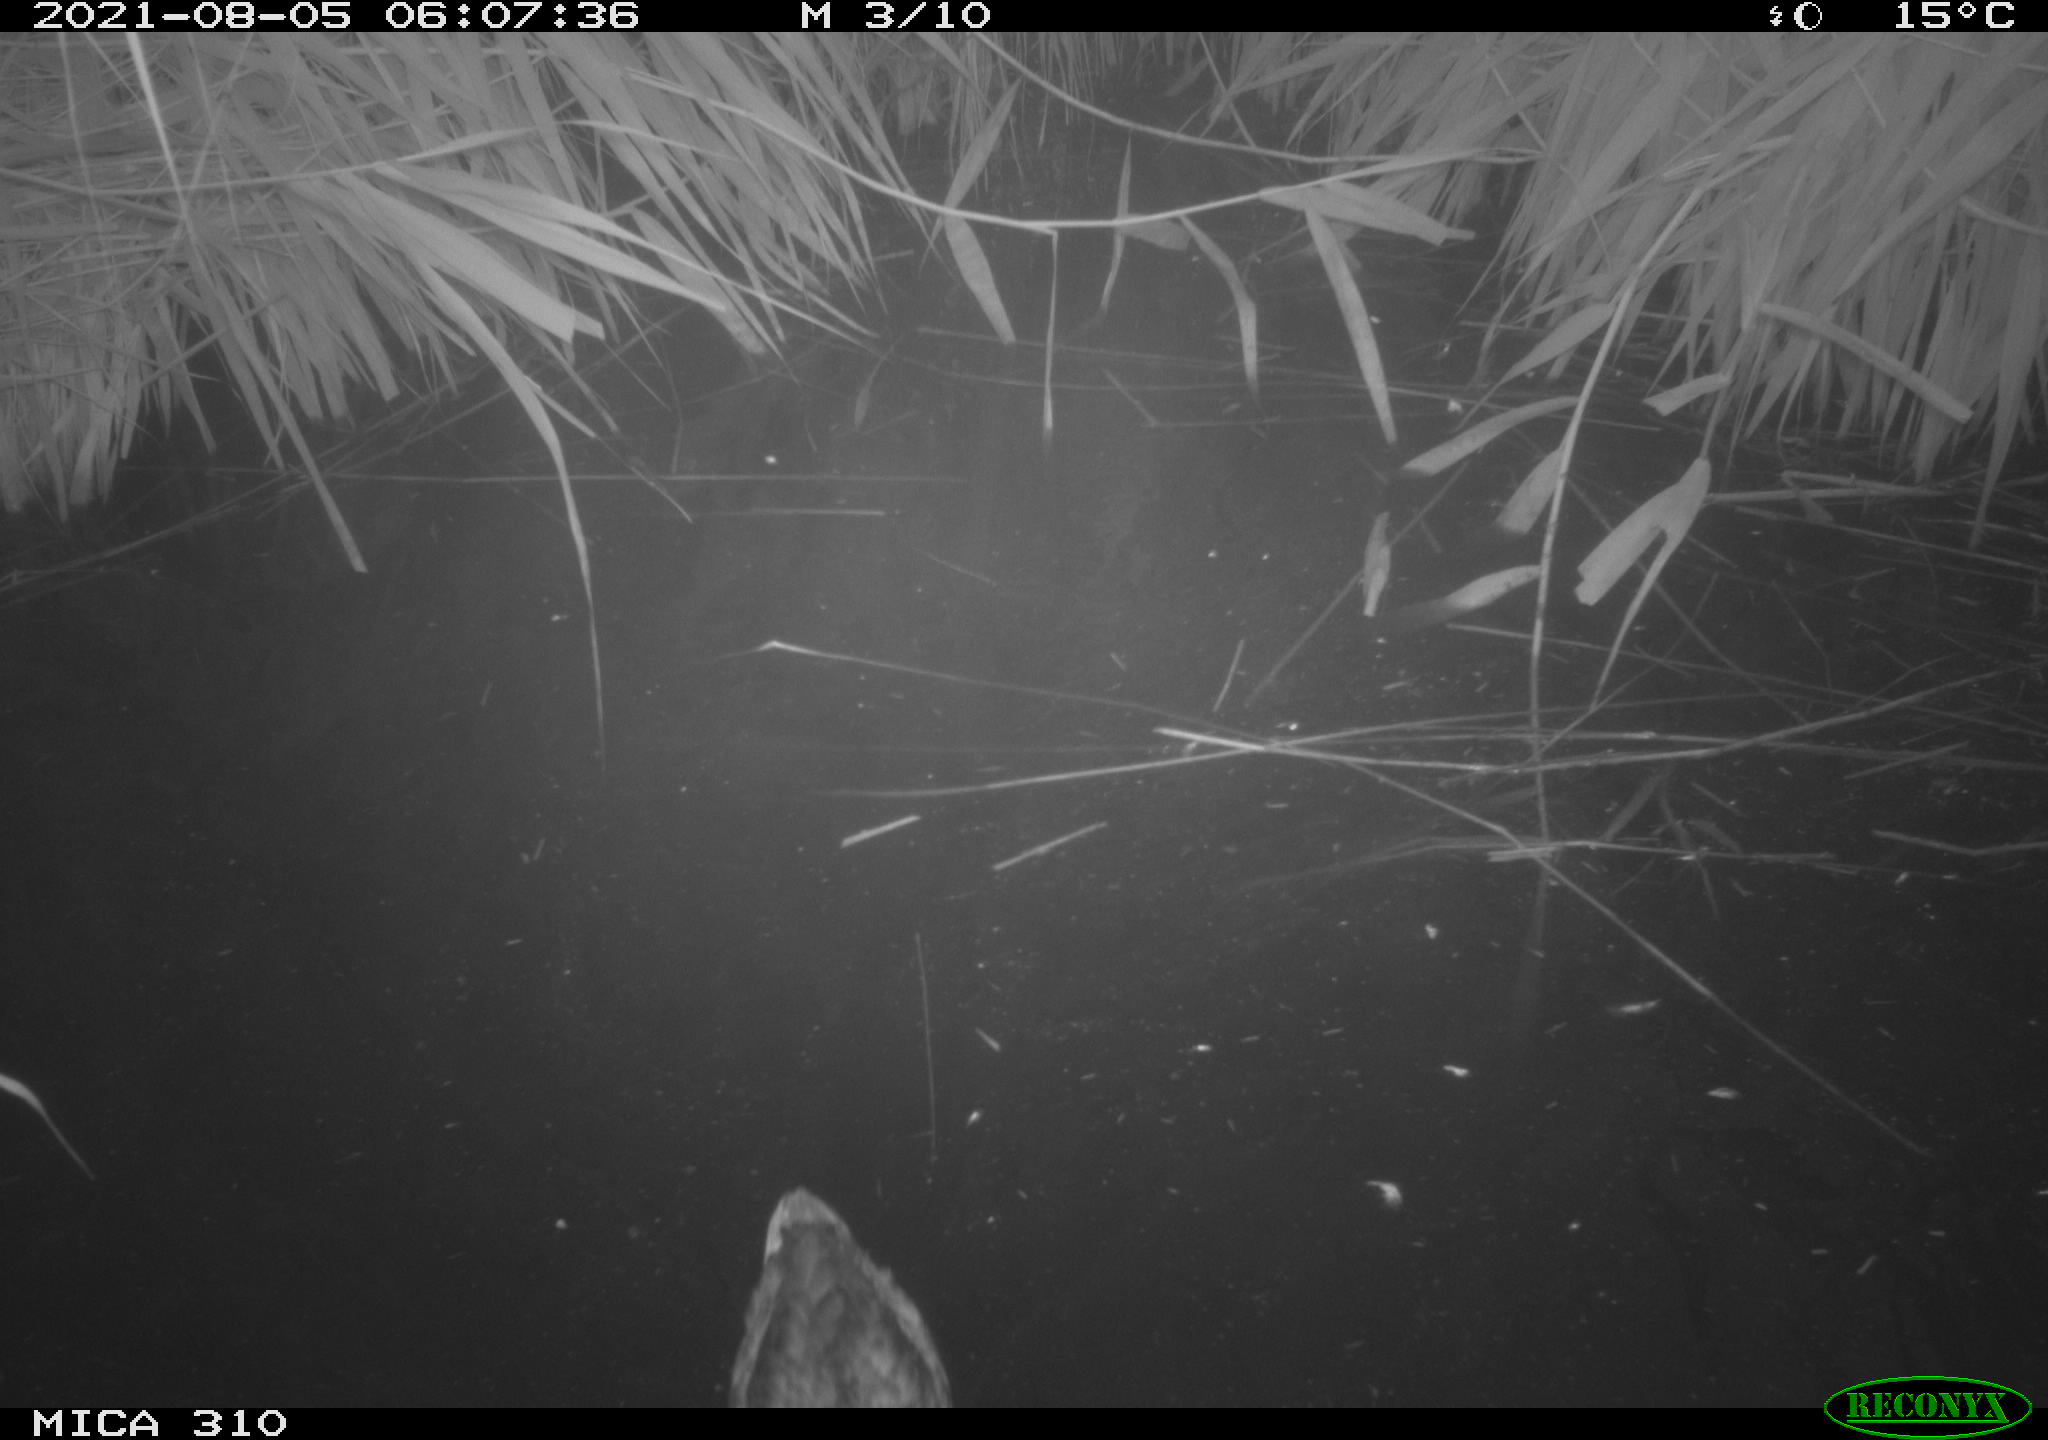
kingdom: Animalia
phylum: Chordata
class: Aves
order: Anseriformes
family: Anatidae
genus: Anas
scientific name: Anas platyrhynchos
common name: Mallard
